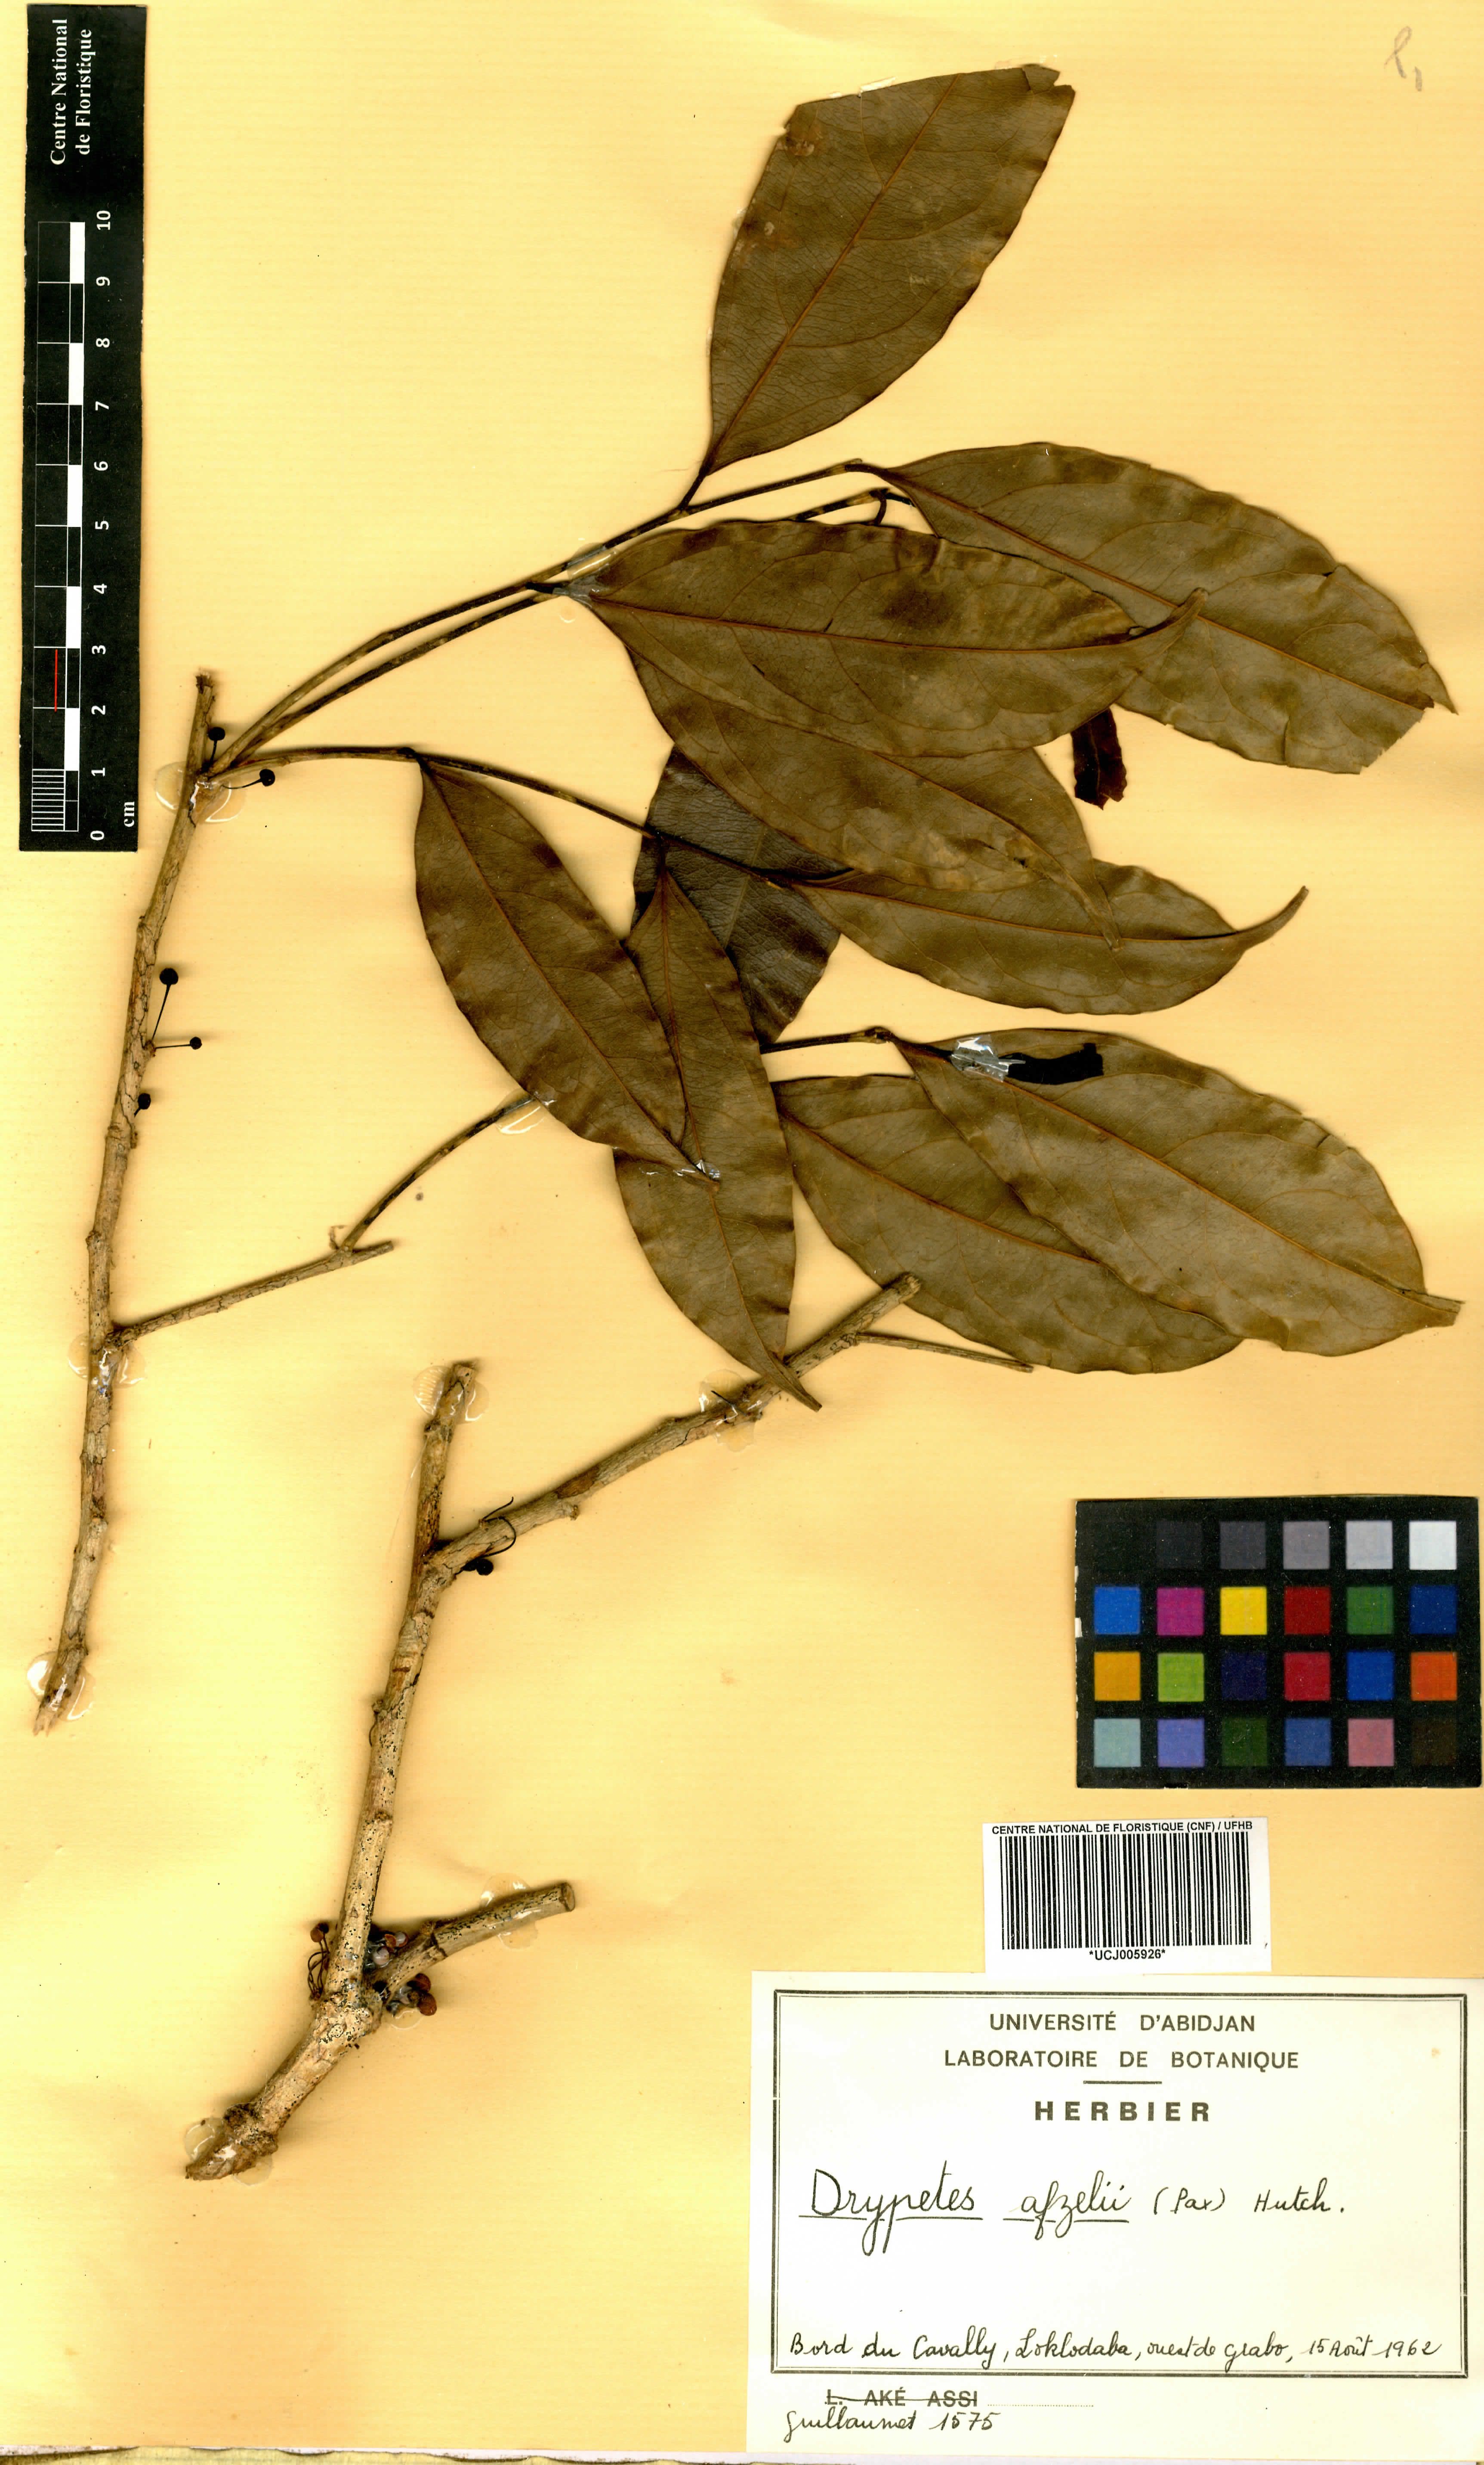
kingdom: Plantae
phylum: Tracheophyta
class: Magnoliopsida
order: Malpighiales
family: Putranjivaceae
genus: Drypetes
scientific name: Drypetes afzelii
